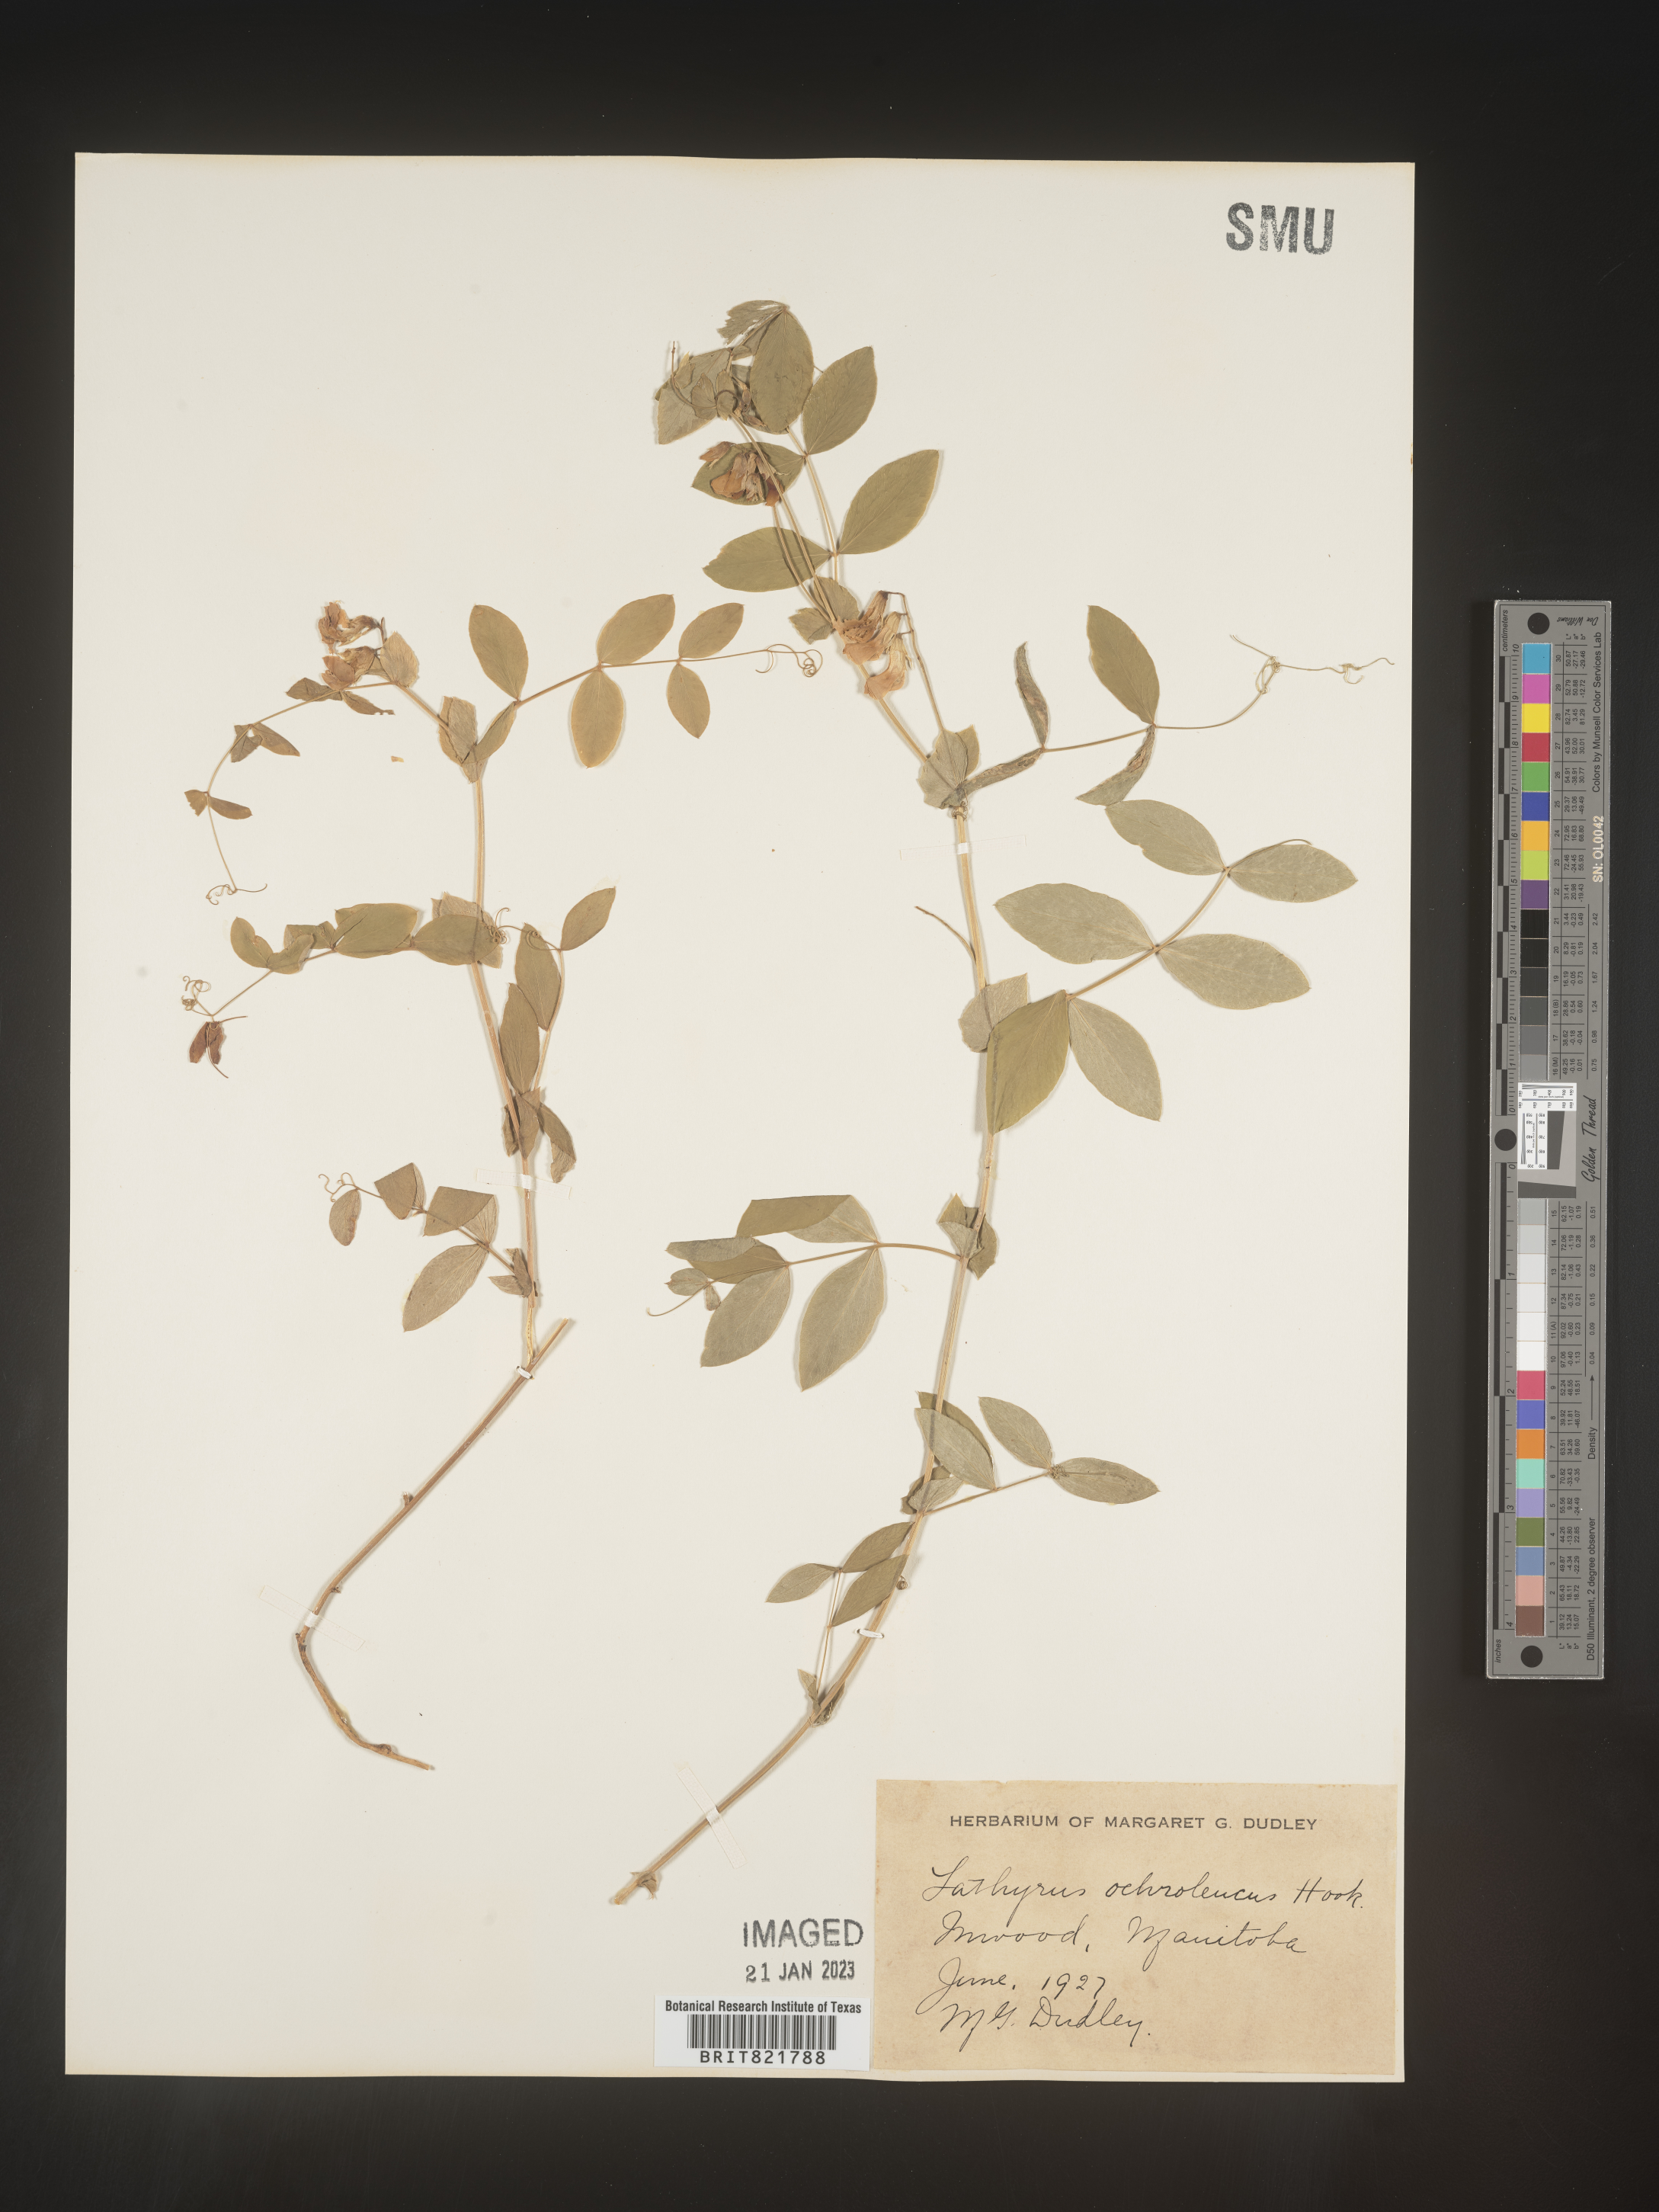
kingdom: Plantae
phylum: Tracheophyta
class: Magnoliopsida
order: Fabales
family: Fabaceae
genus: Lathyrus
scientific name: Lathyrus
